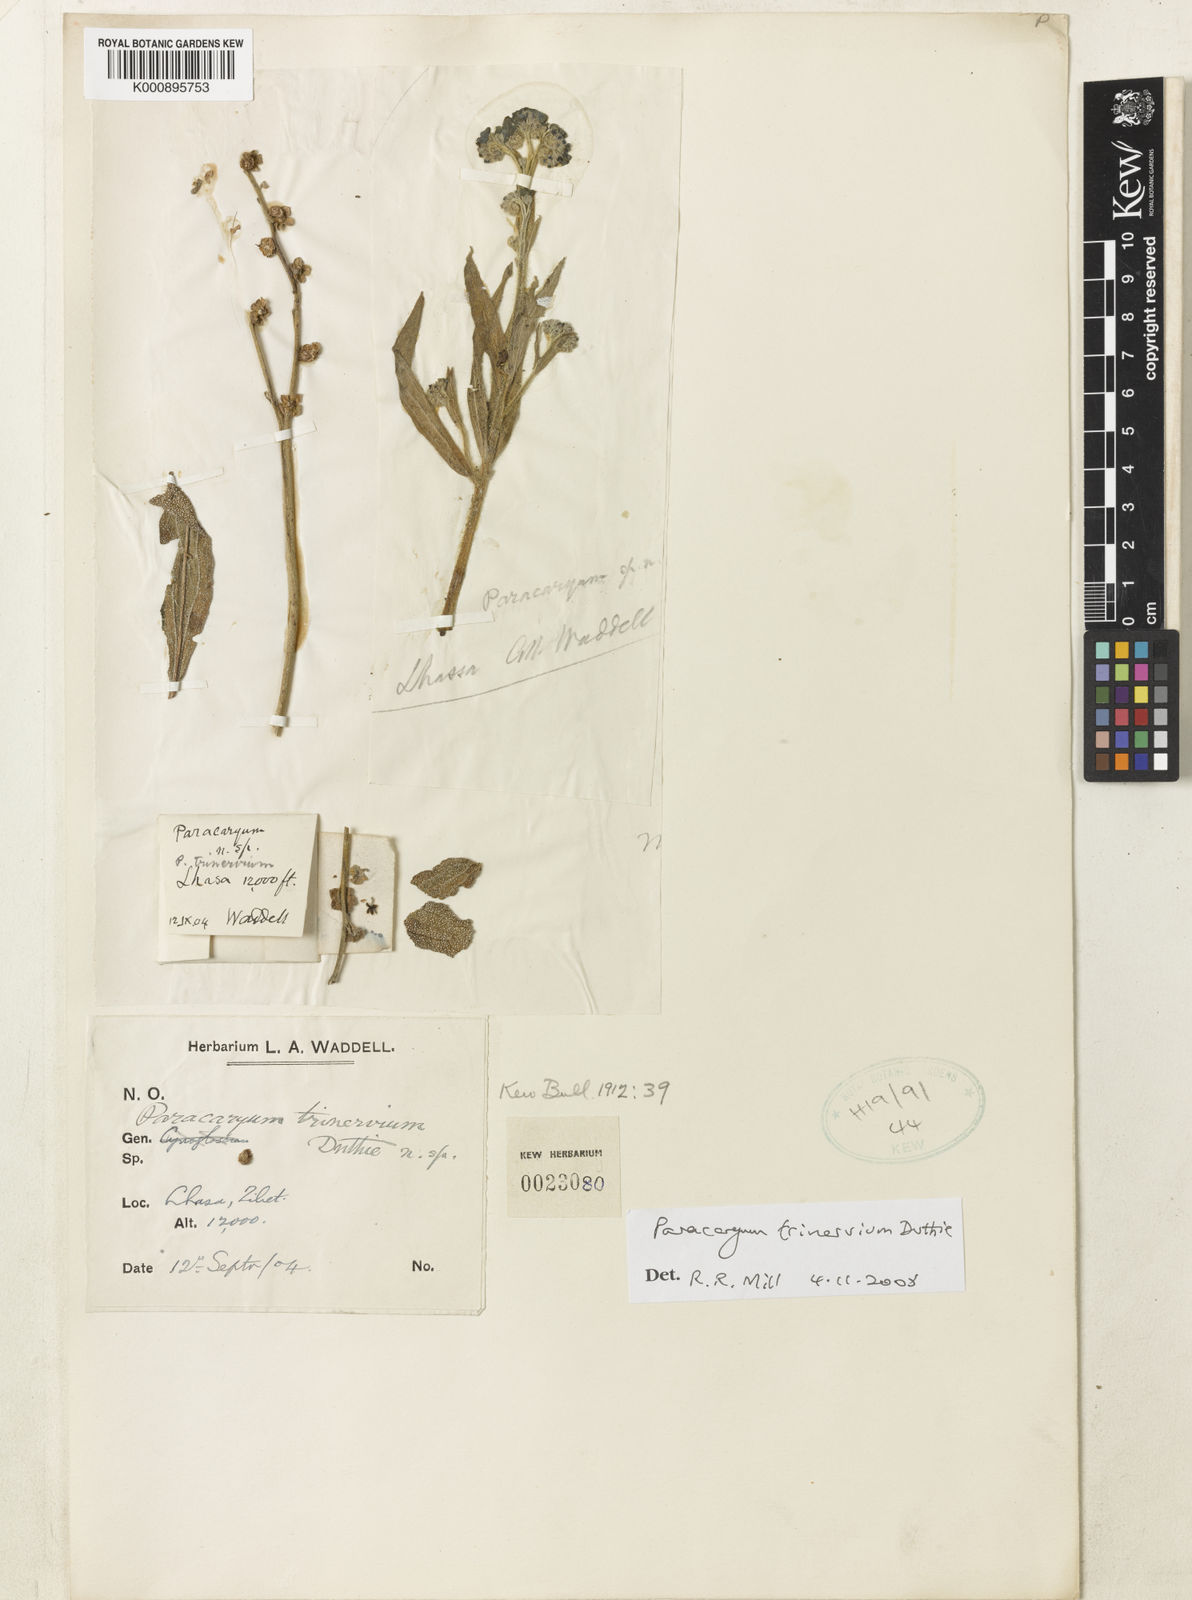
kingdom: Plantae
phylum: Tracheophyta
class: Magnoliopsida
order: Boraginales
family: Boraginaceae
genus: Paracaryum
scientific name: Paracaryum trinervium
